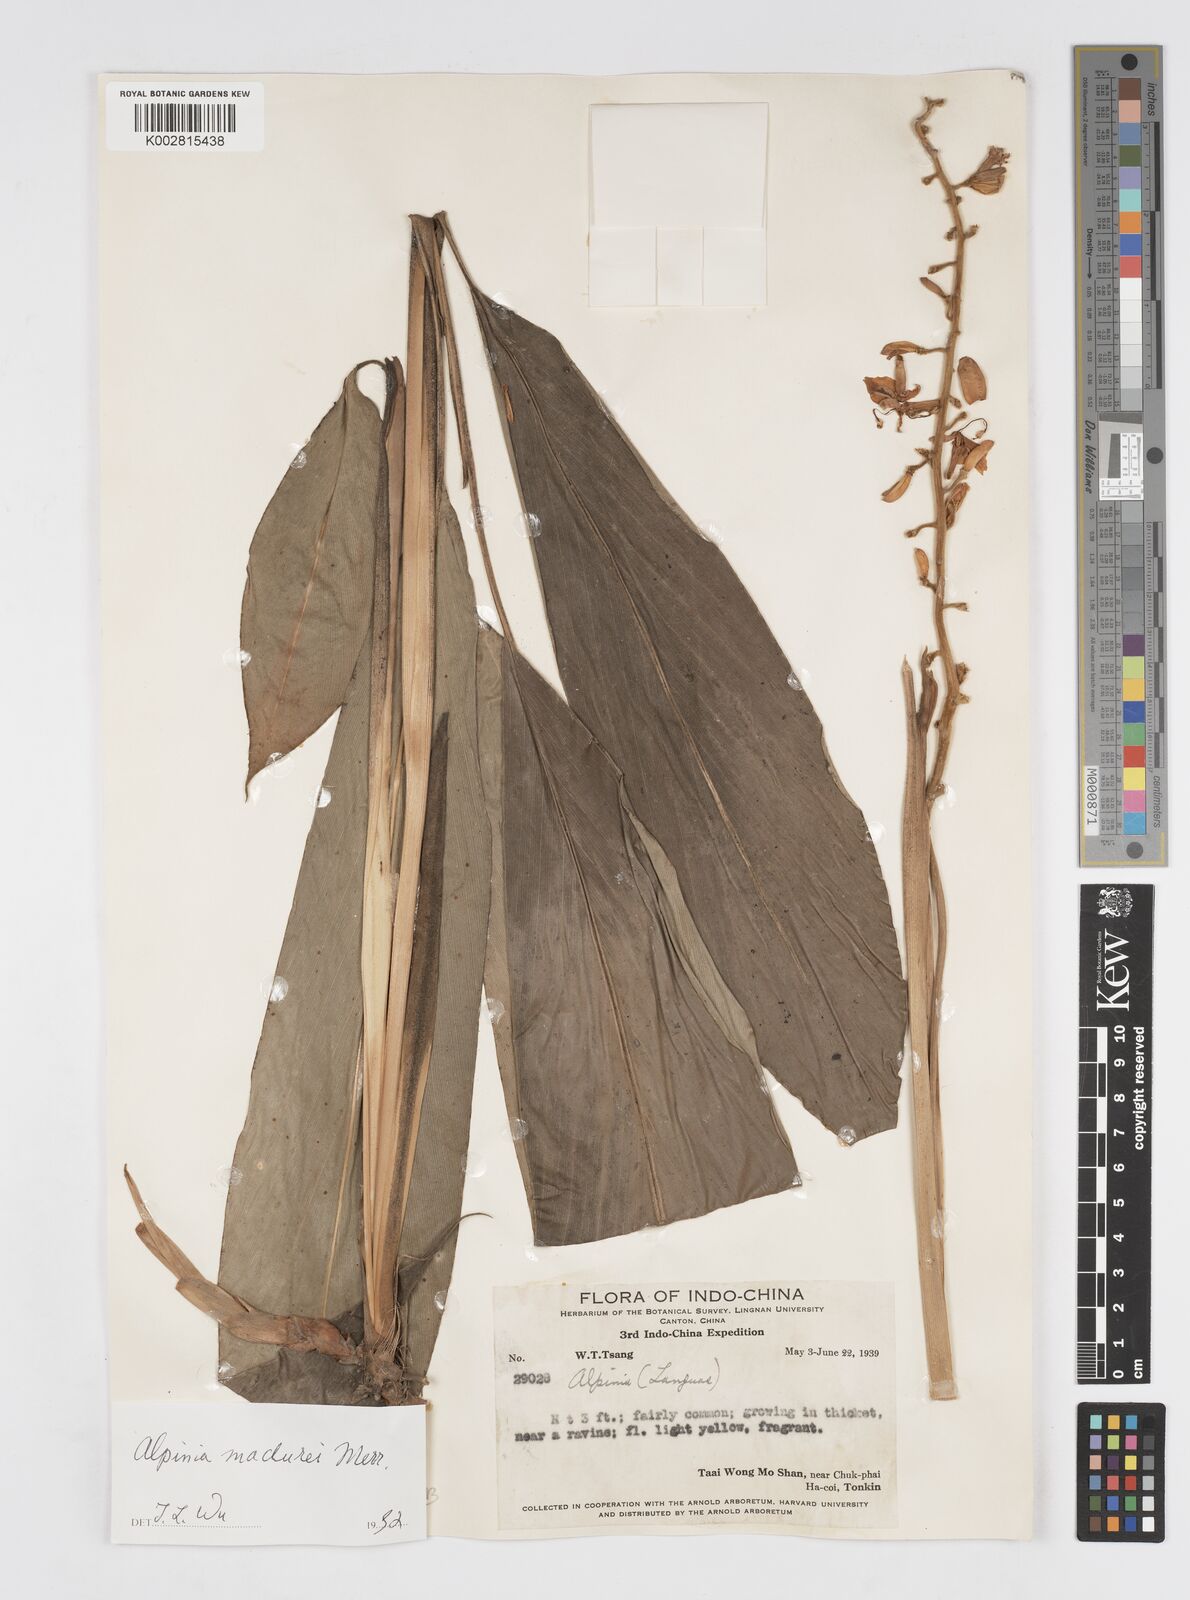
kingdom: Plantae
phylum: Tracheophyta
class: Liliopsida
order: Zingiberales
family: Zingiberaceae
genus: Alpinia
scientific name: Alpinia maclurei
